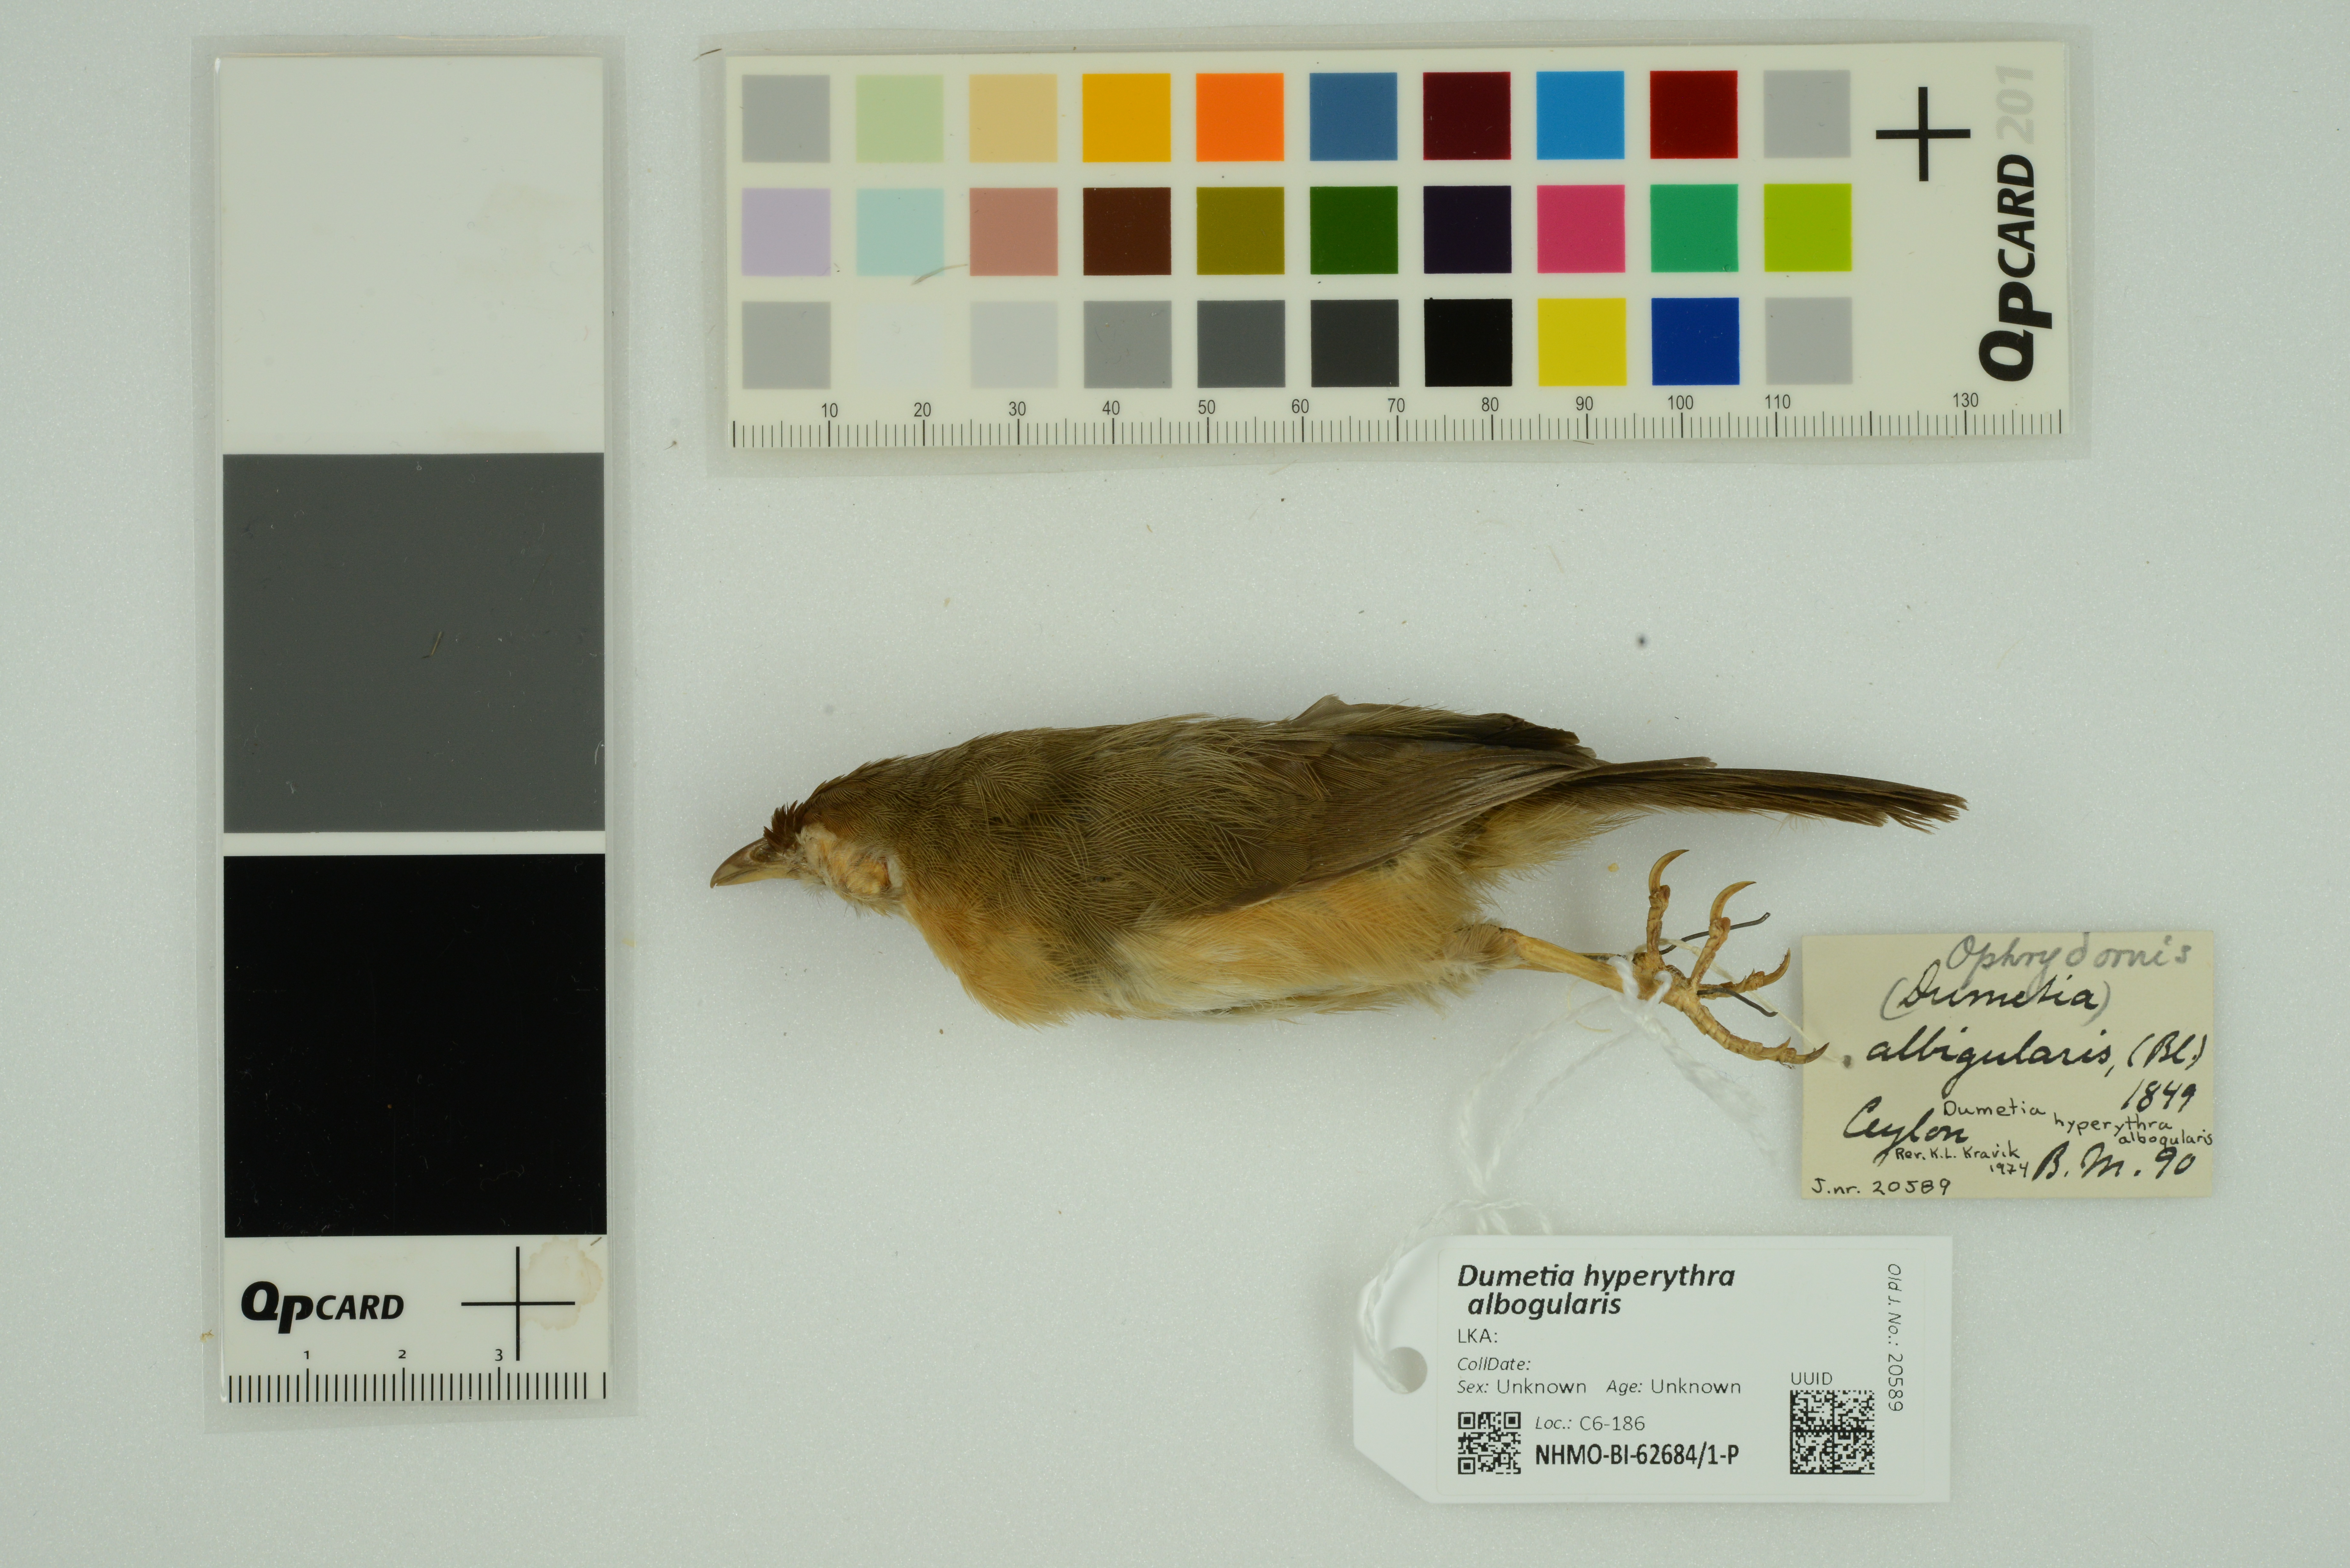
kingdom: Animalia
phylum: Chordata
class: Aves
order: Passeriformes
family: Timaliidae
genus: Dumetia
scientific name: Dumetia hyperythra
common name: Tawny-bellied babbler
